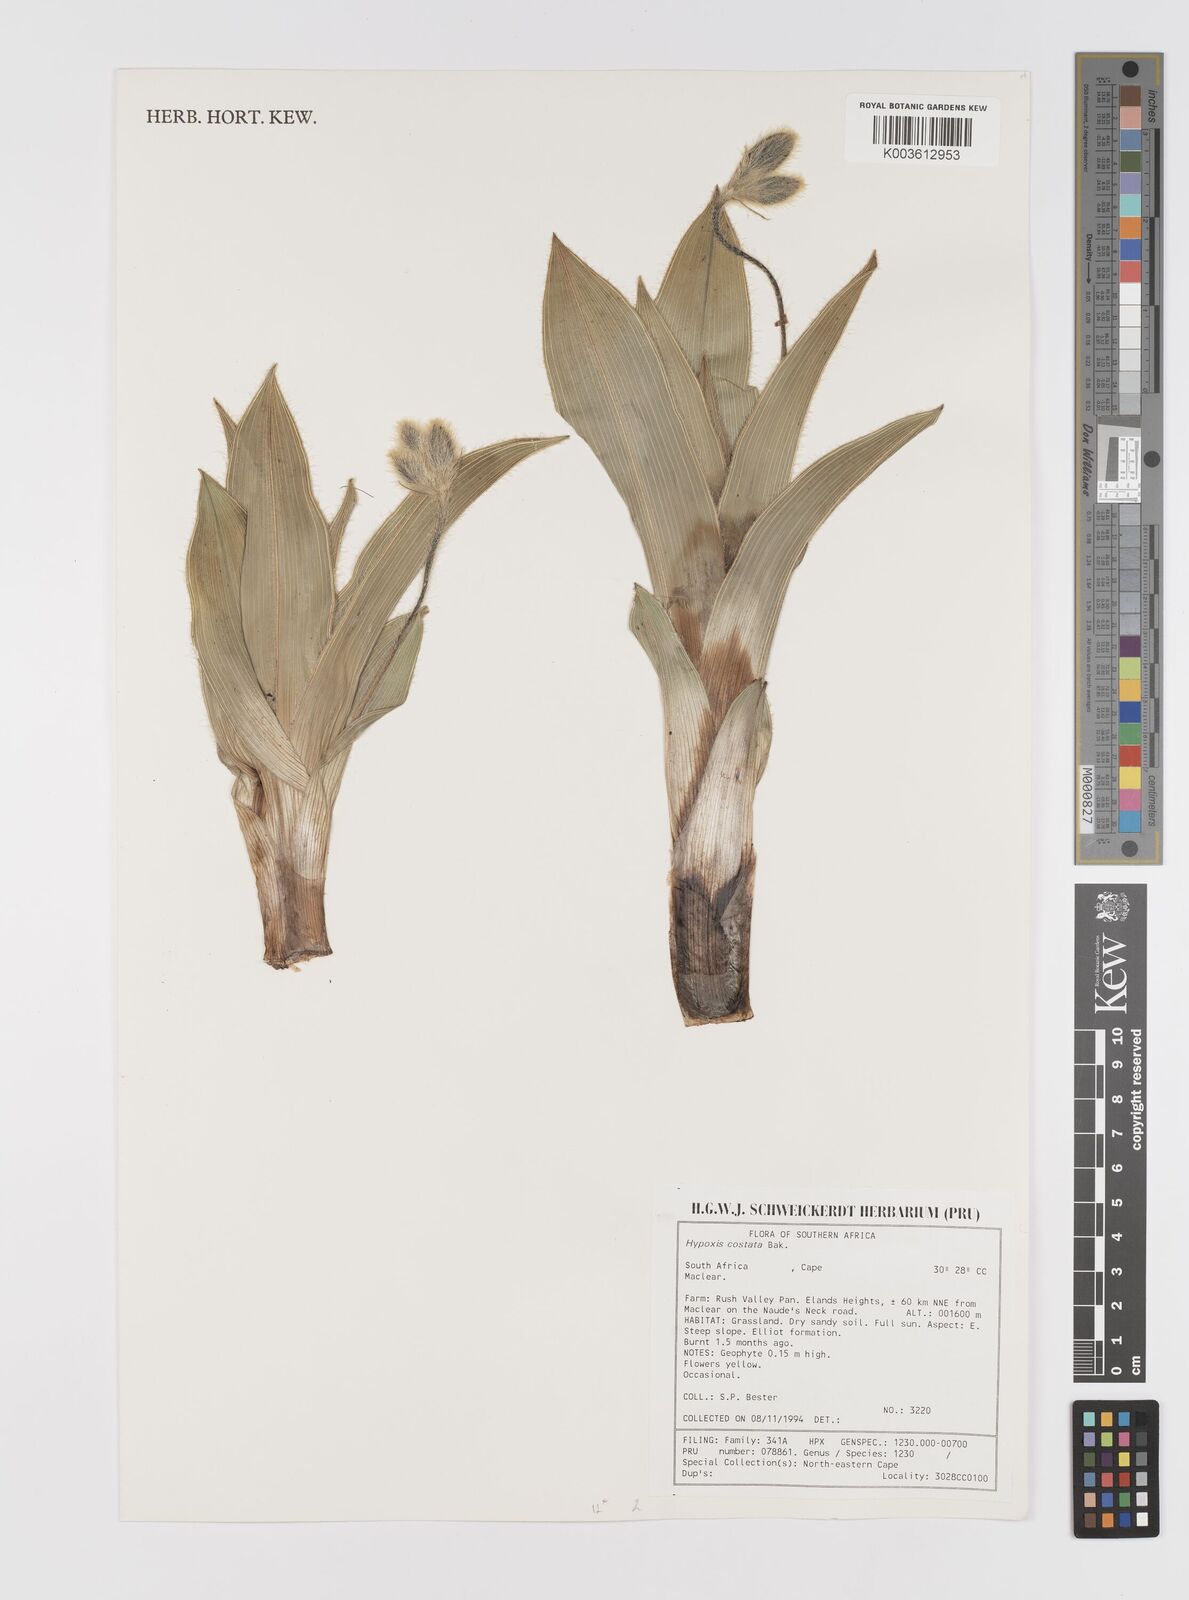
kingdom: Plantae
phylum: Tracheophyta
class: Liliopsida
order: Asparagales
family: Hypoxidaceae
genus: Hypoxis
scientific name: Hypoxis costata
